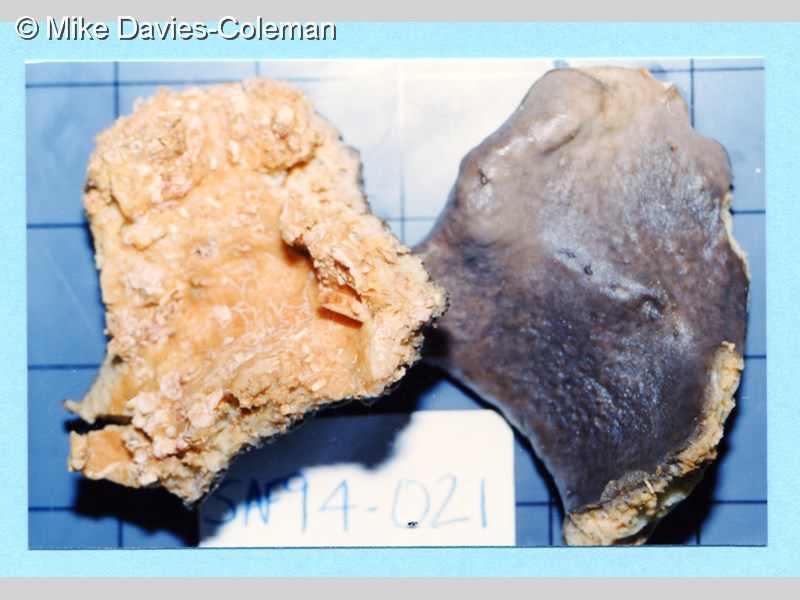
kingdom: Animalia
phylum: Porifera
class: Demospongiae
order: Clionaida
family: Spirastrellidae
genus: Spirastrella
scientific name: Spirastrella
